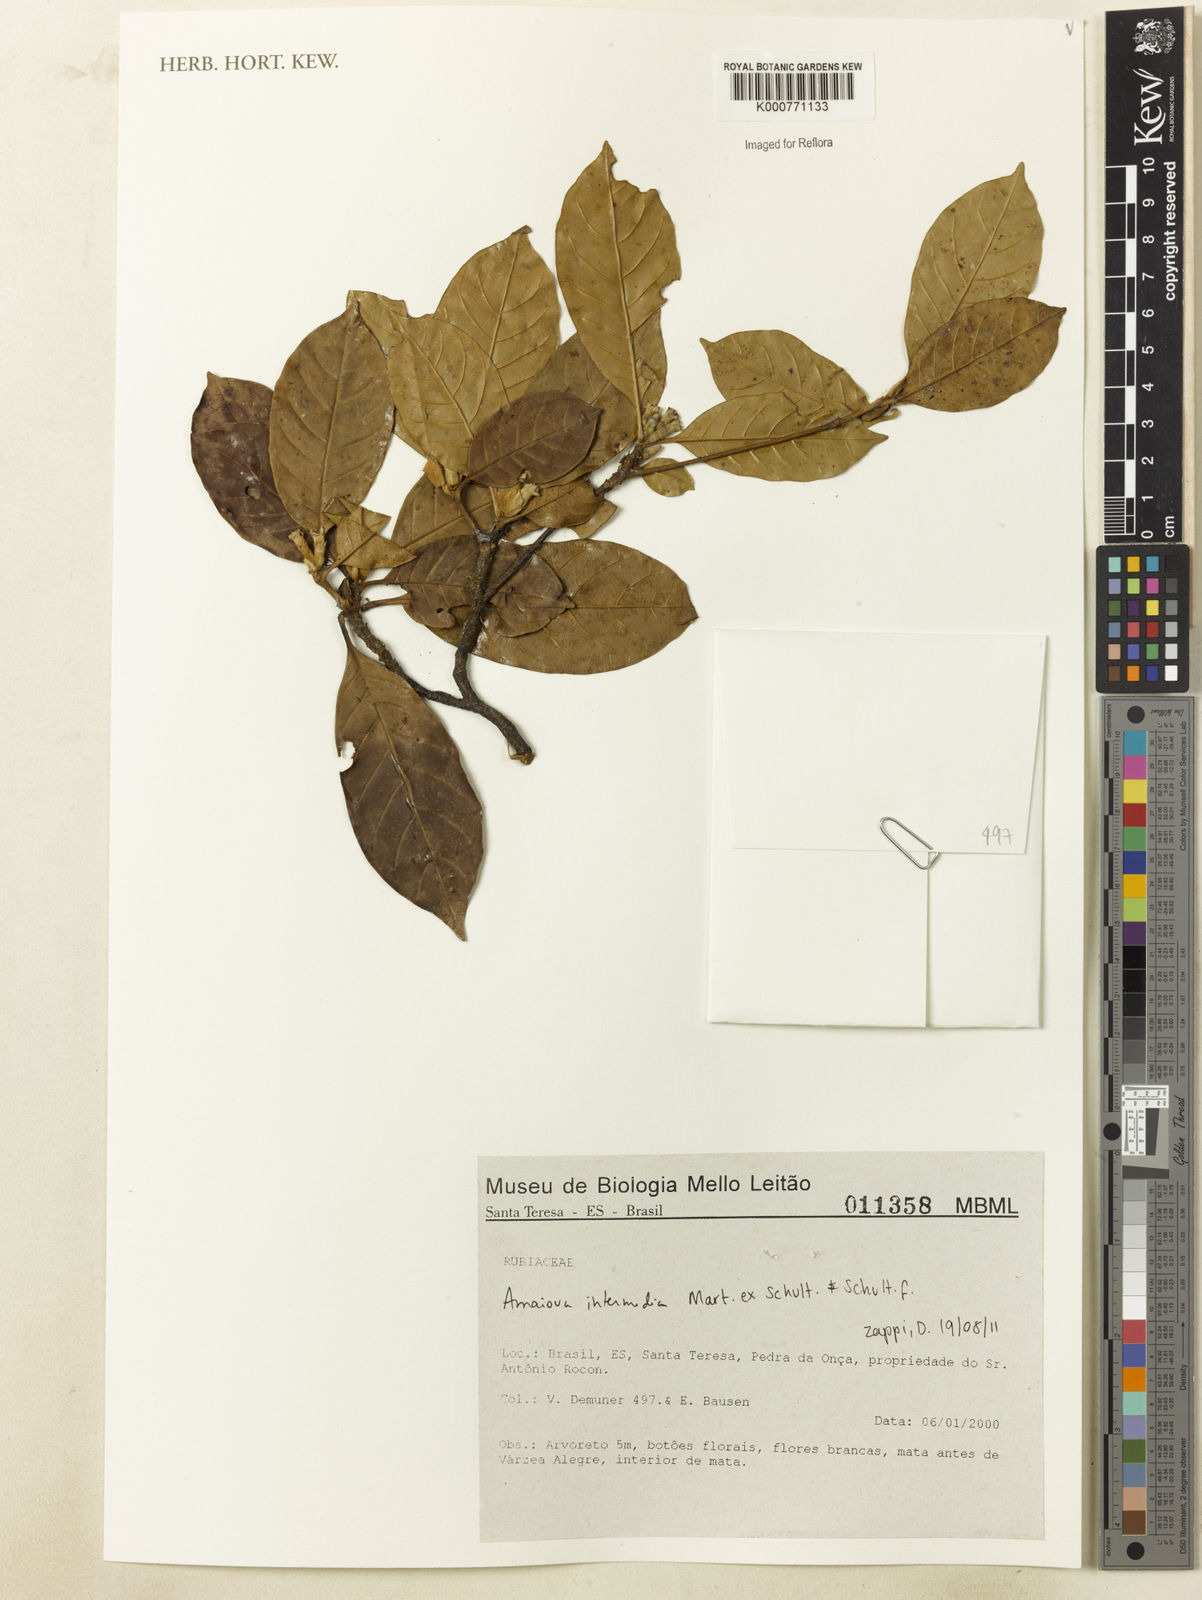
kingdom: Plantae
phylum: Tracheophyta
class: Magnoliopsida
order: Gentianales
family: Rubiaceae
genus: Amaioua
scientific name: Amaioua intermedia
